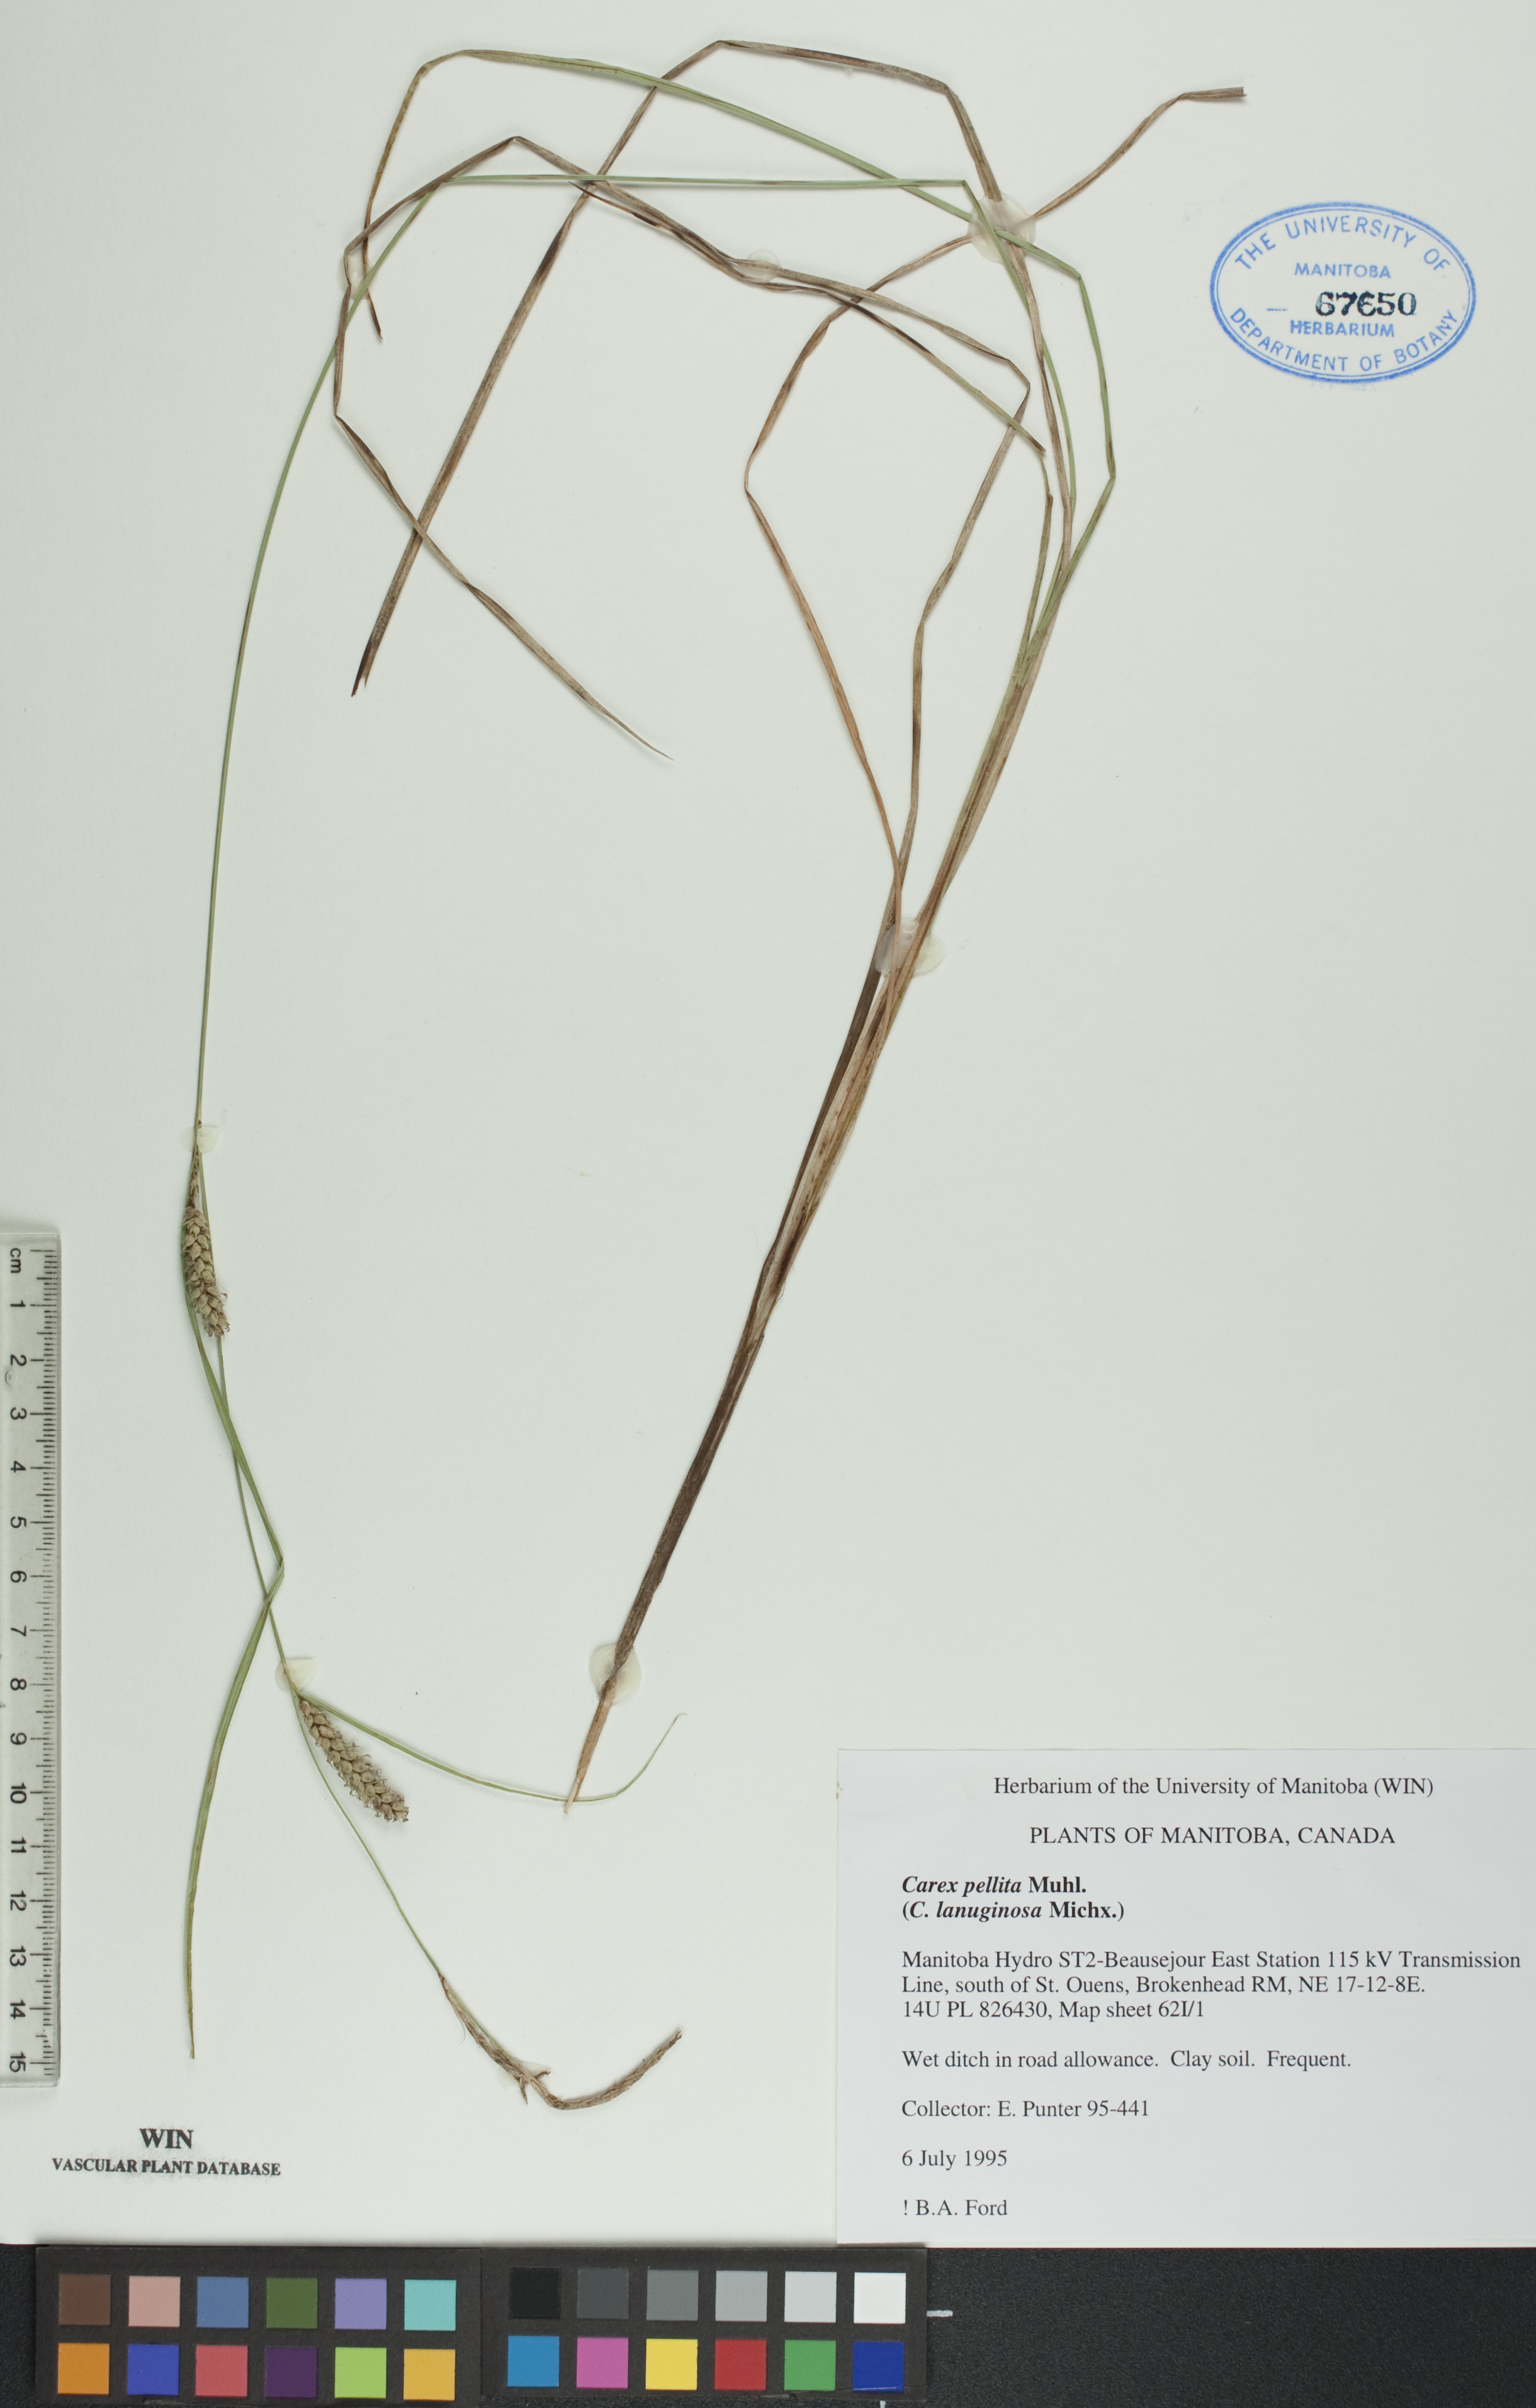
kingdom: Plantae
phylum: Tracheophyta
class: Liliopsida
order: Poales
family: Cyperaceae
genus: Carex
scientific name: Carex lasiocarpa
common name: Slender sedge
